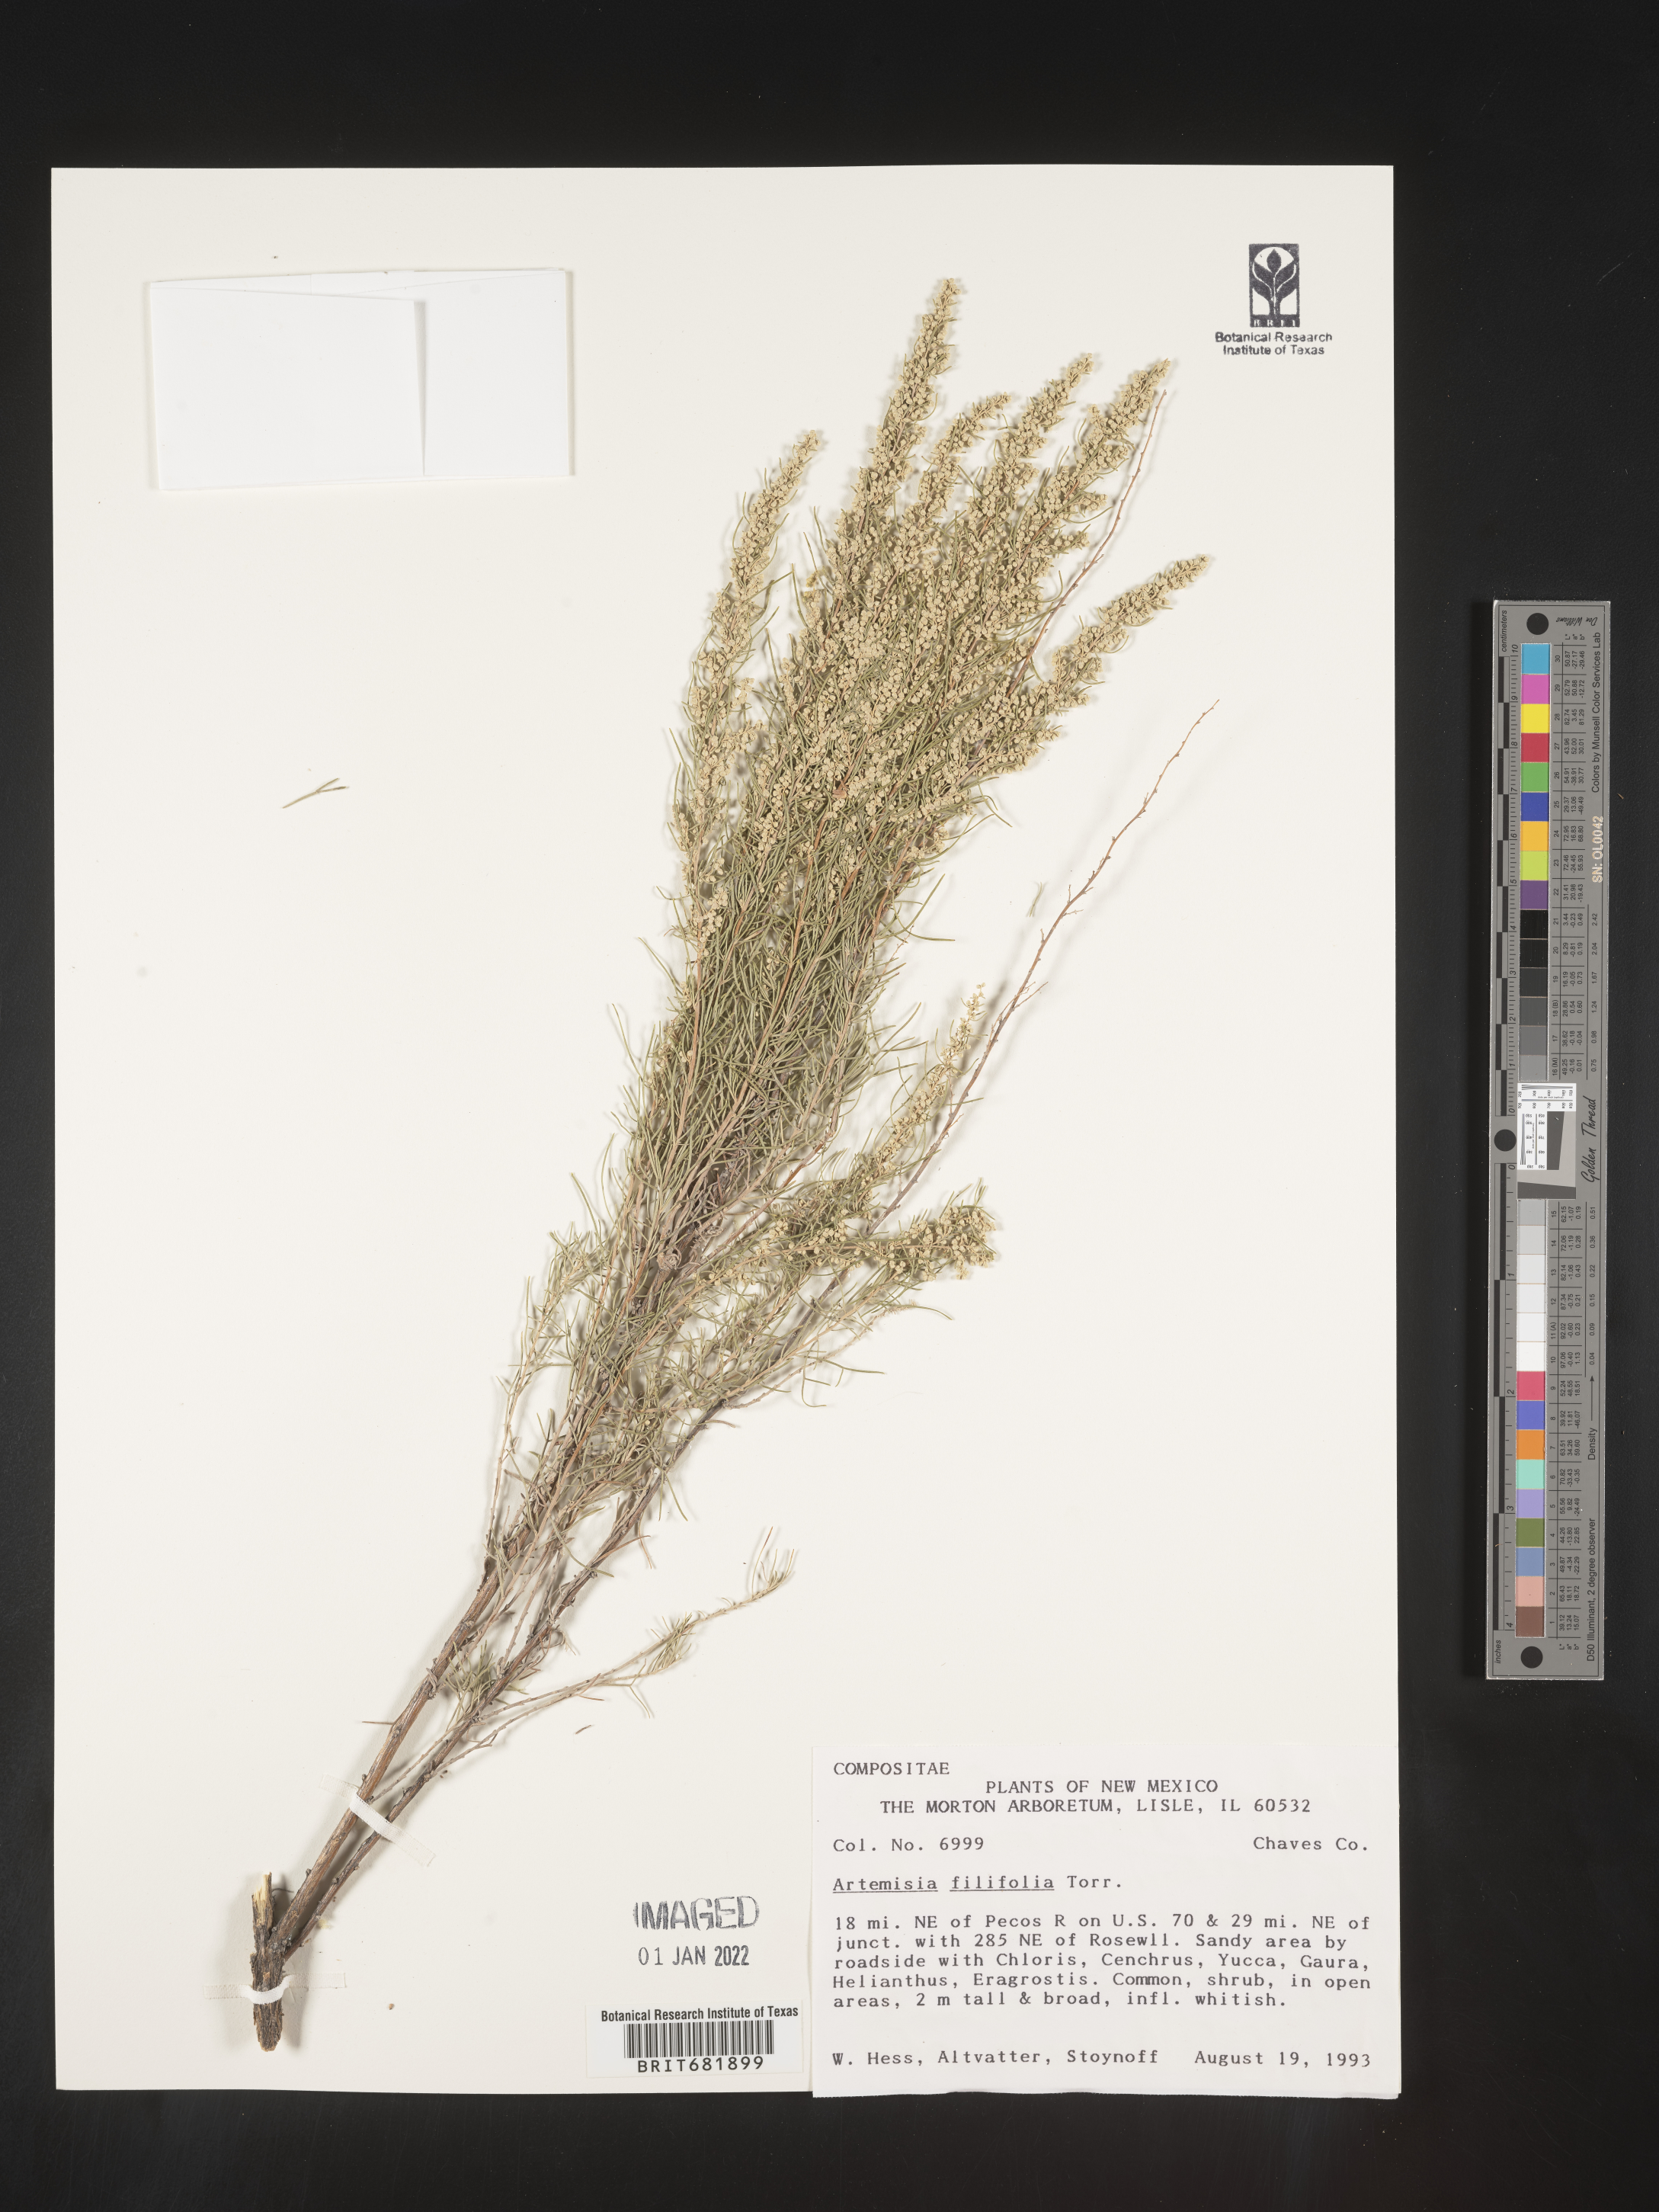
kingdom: Plantae
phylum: Tracheophyta
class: Magnoliopsida
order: Asterales
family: Asteraceae
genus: Artemisia
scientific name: Artemisia filifolia
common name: Sand-sage
